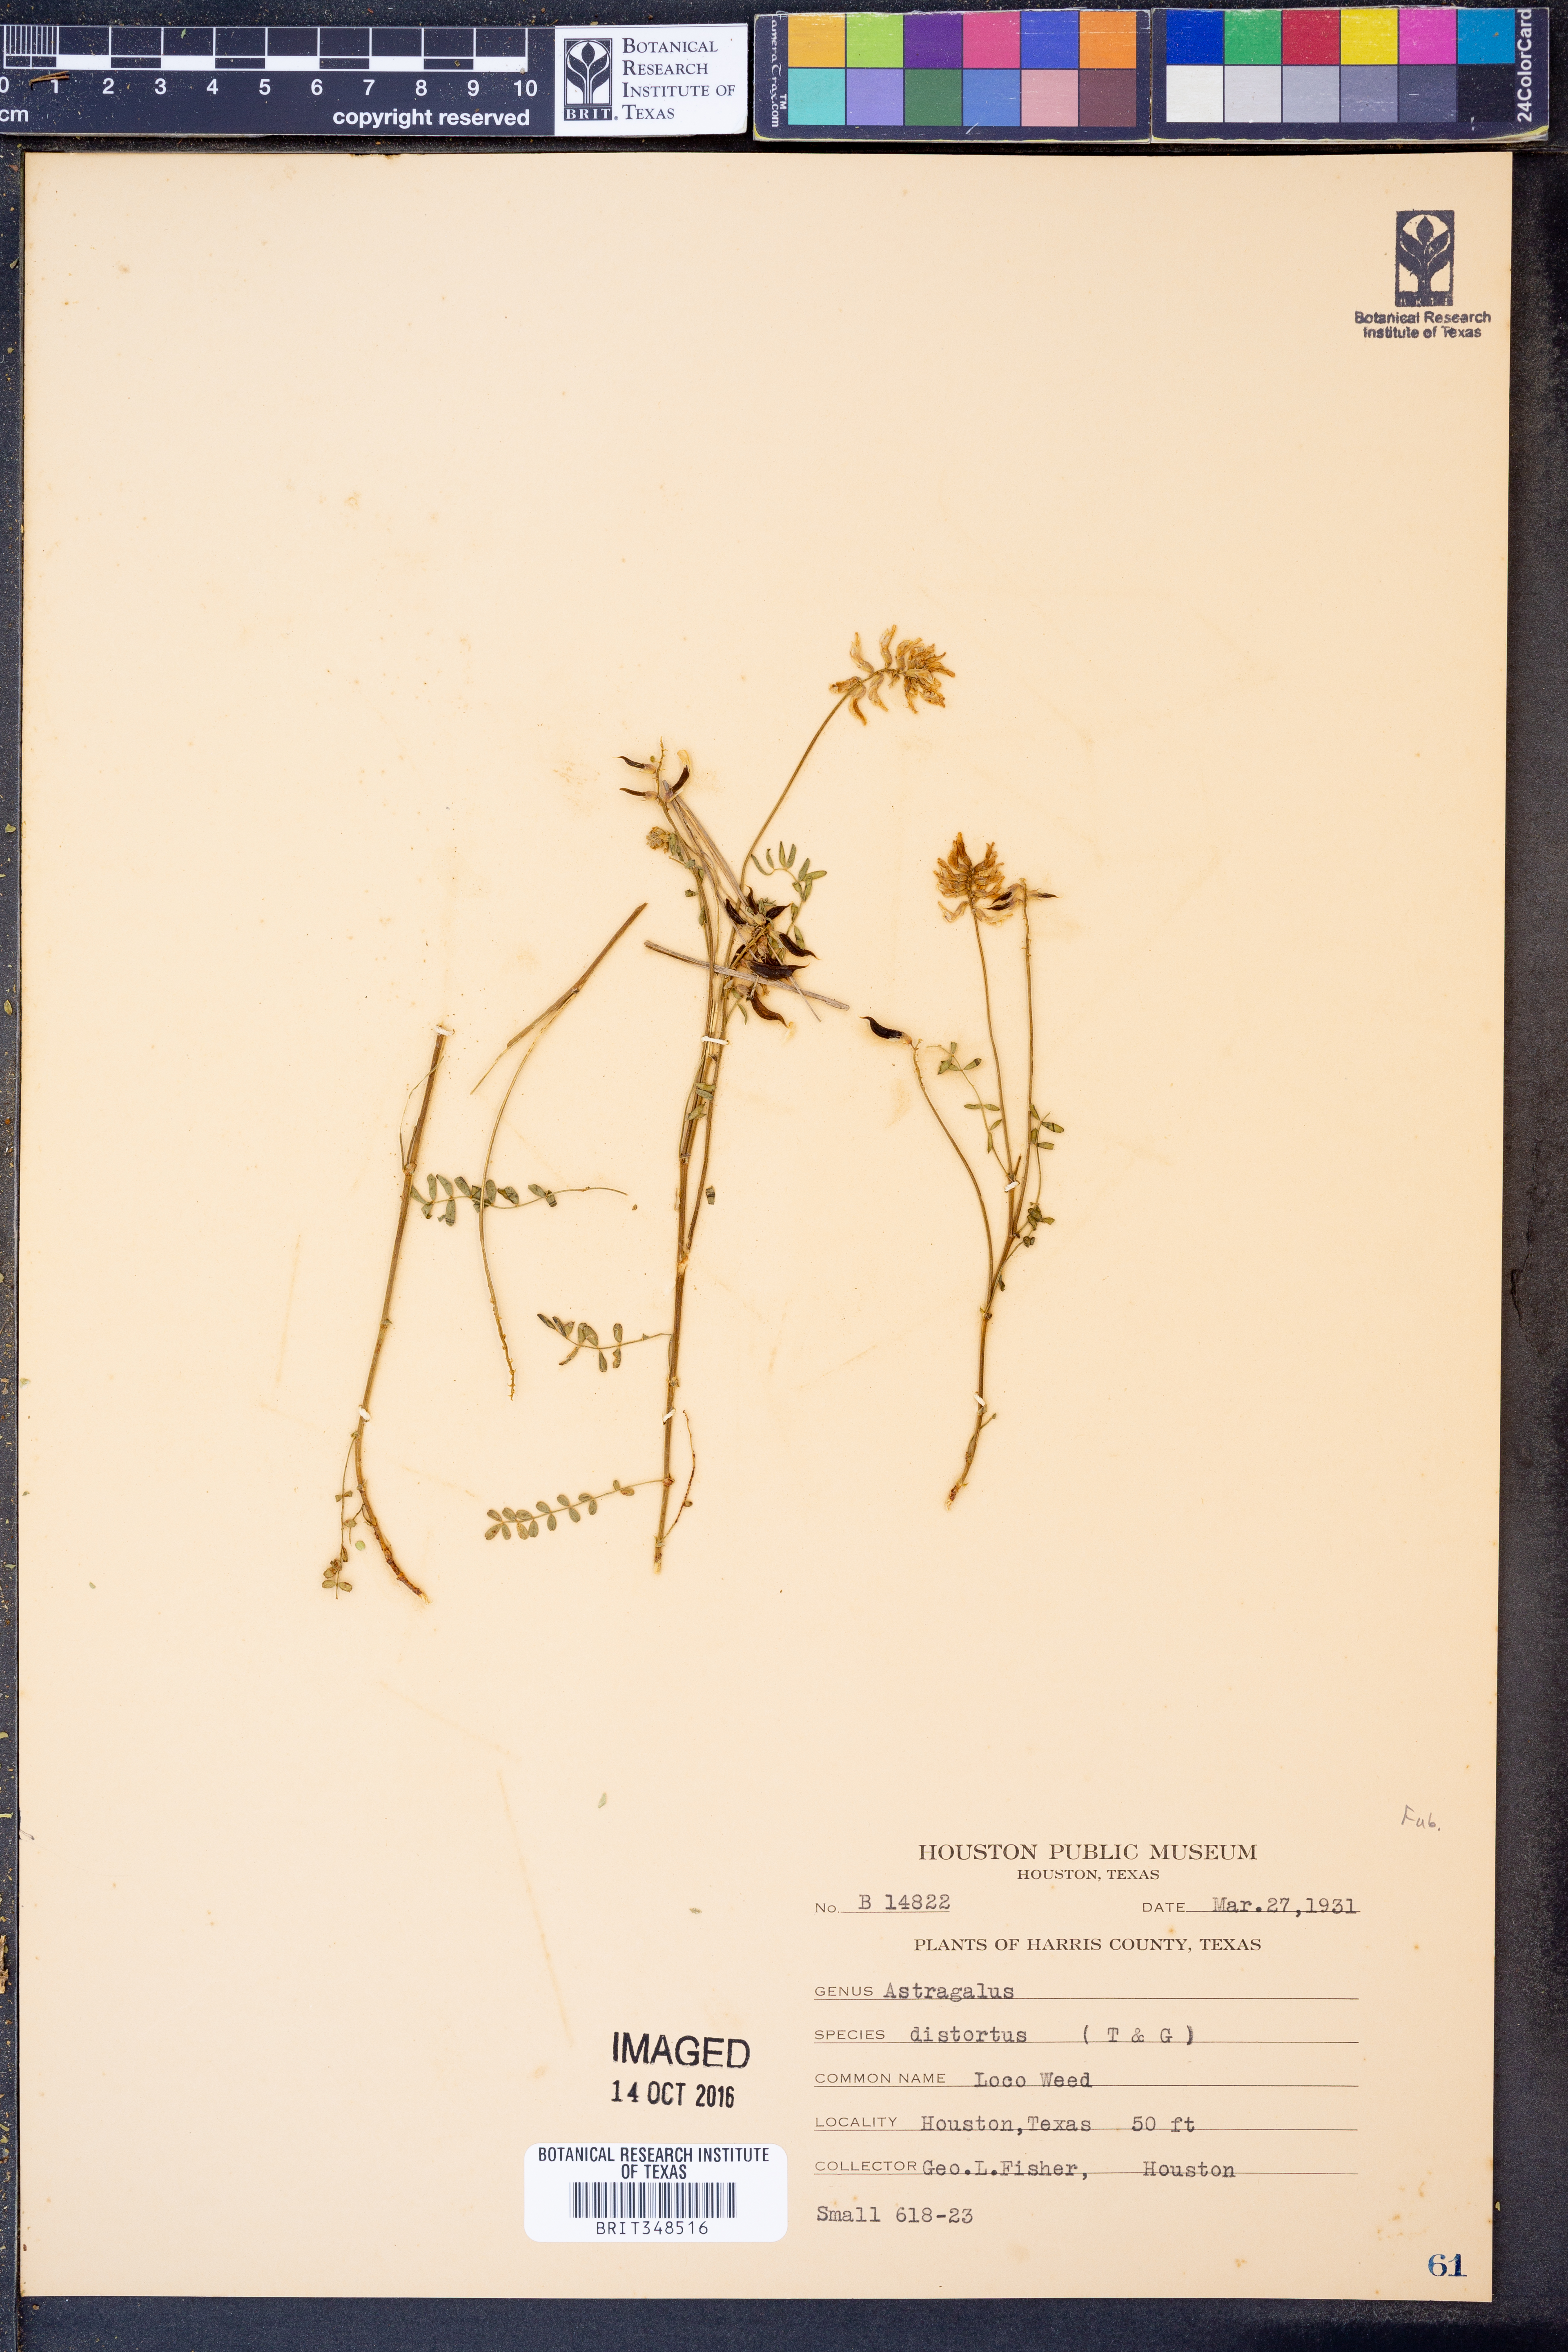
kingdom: Plantae
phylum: Tracheophyta
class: Magnoliopsida
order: Fabales
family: Fabaceae
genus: Astragalus
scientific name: Astragalus distortus
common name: Ozark milk-vetch
